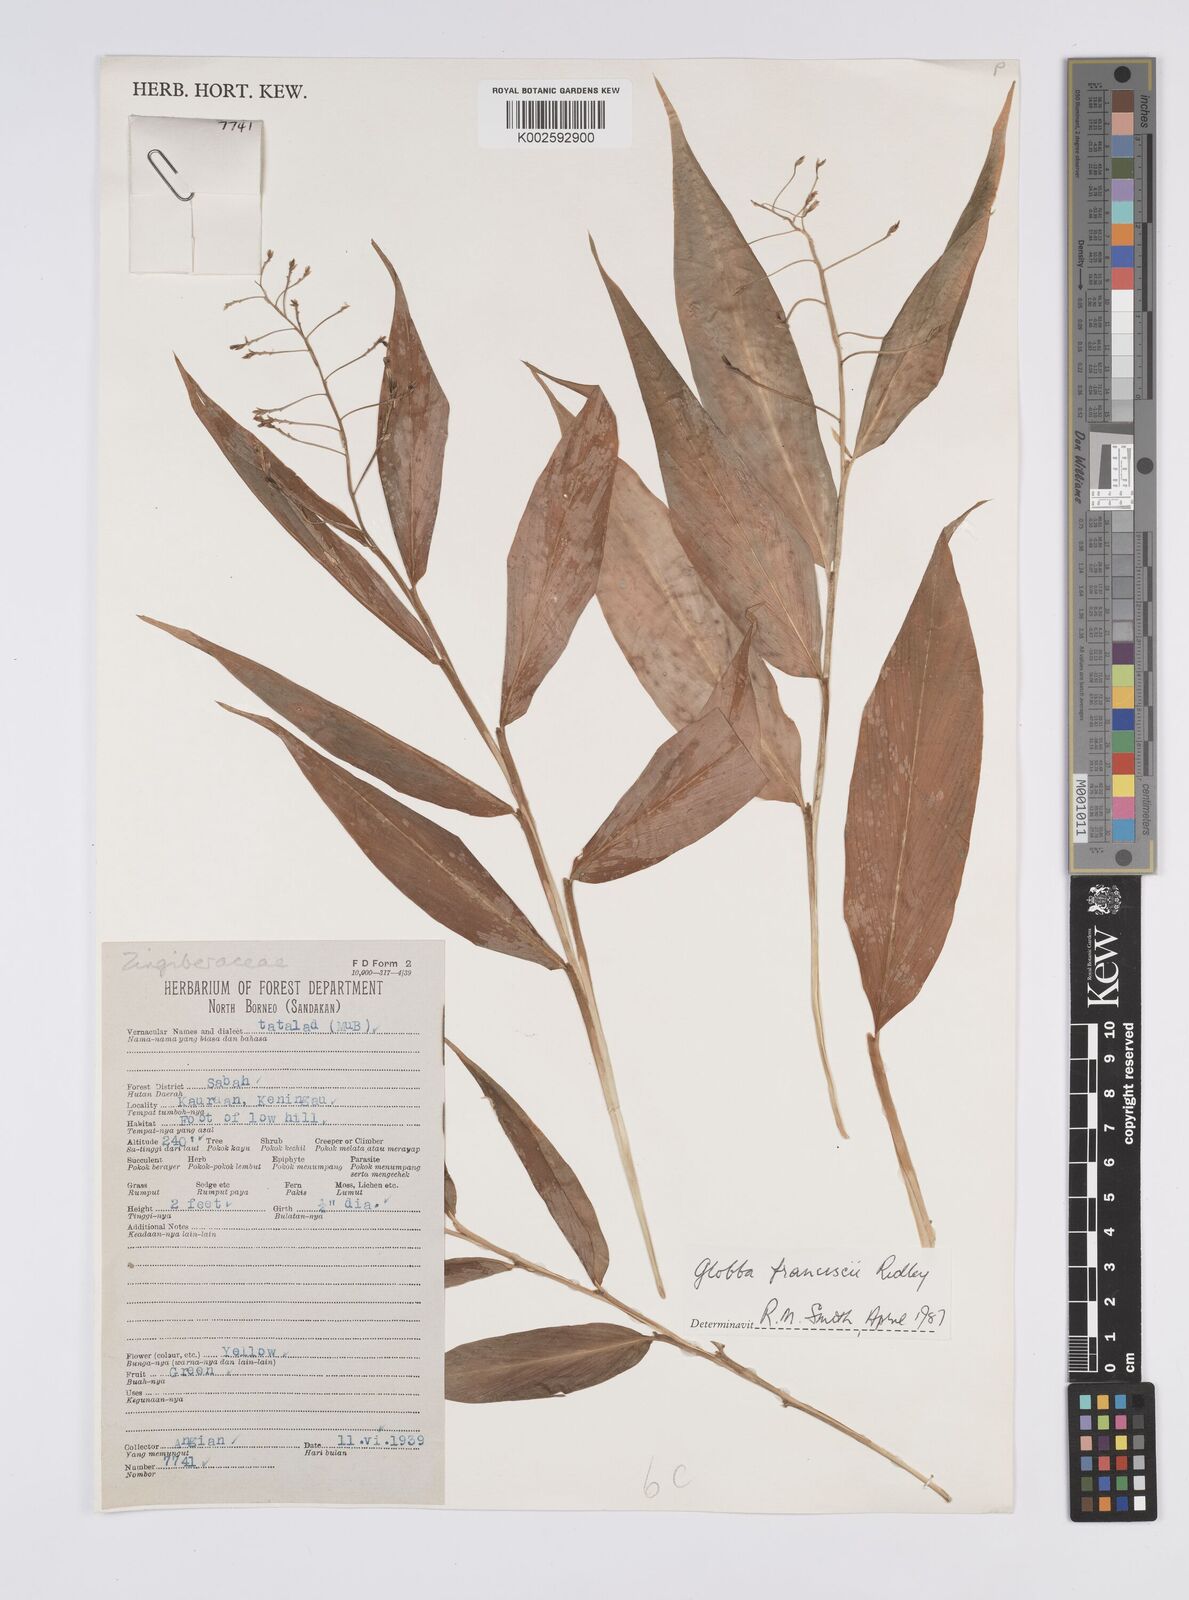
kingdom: Plantae
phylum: Tracheophyta
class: Liliopsida
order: Zingiberales
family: Zingiberaceae
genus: Globba
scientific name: Globba francisci
